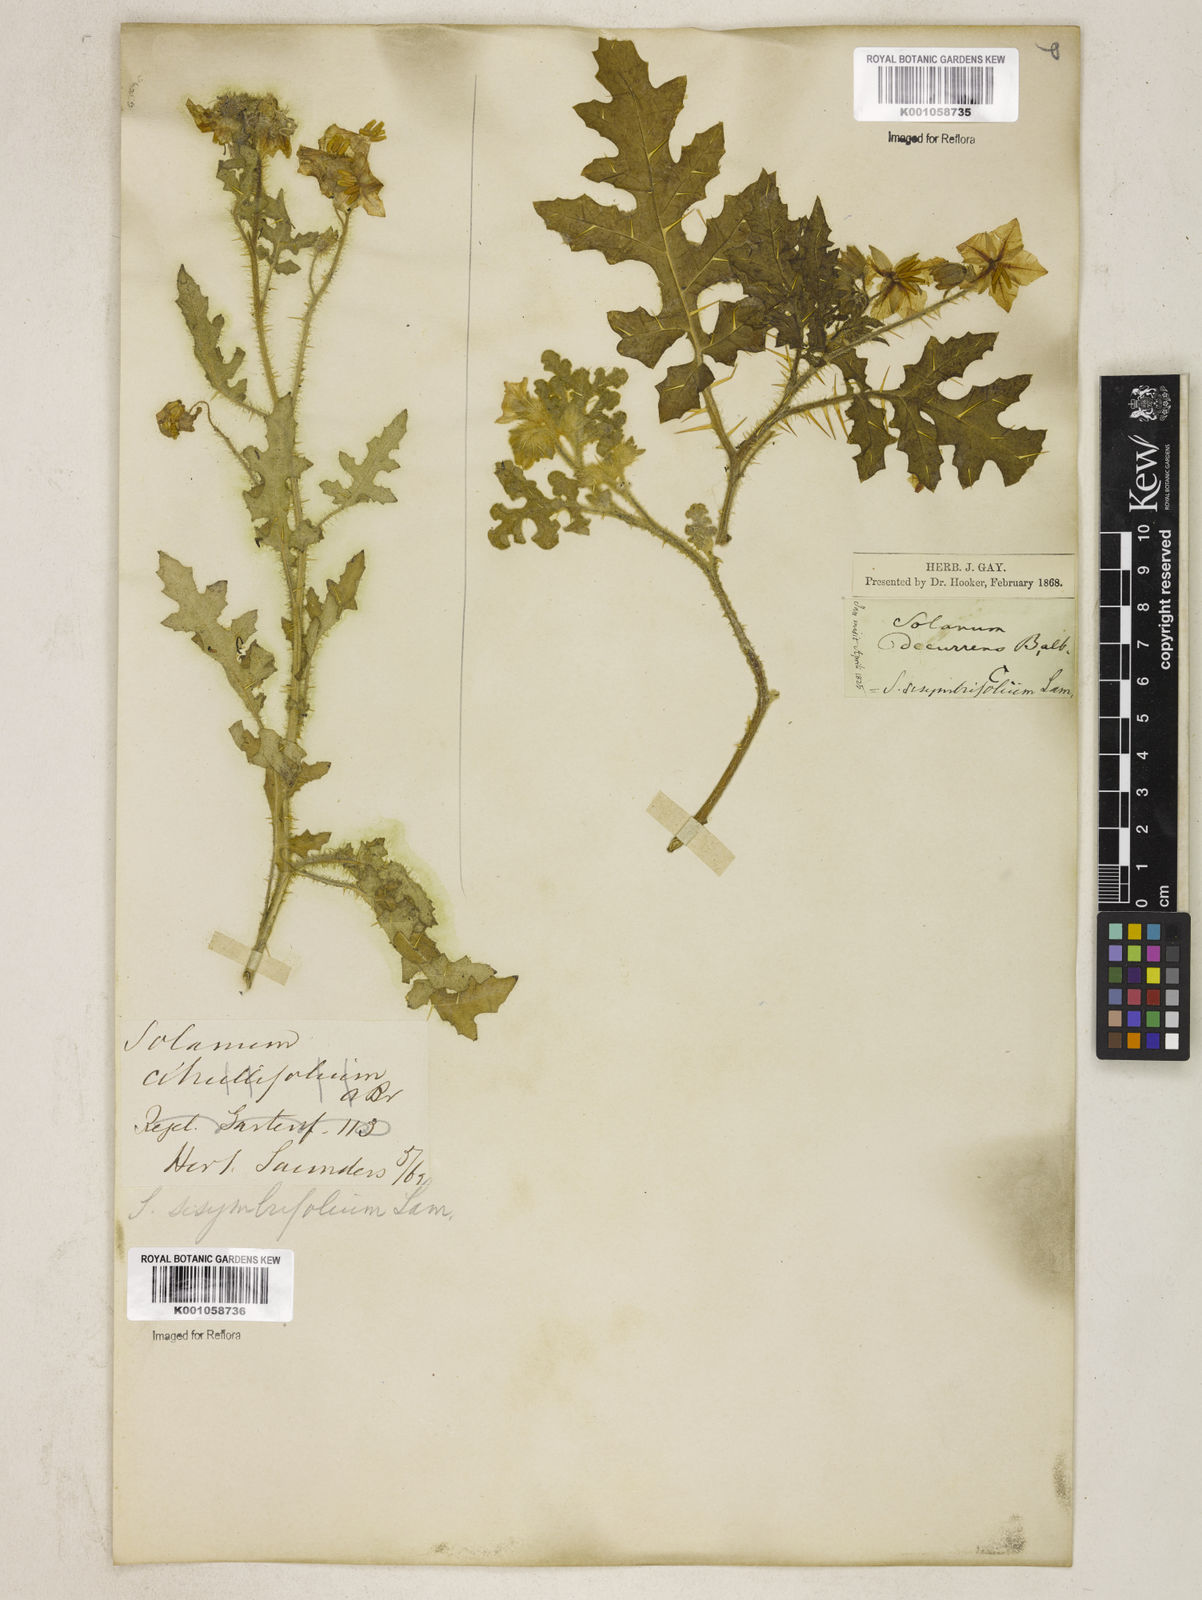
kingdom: Plantae
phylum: Tracheophyta
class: Magnoliopsida
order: Solanales
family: Solanaceae
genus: Solanum
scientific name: Solanum sisymbriifolium
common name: Red buffalo-bur
